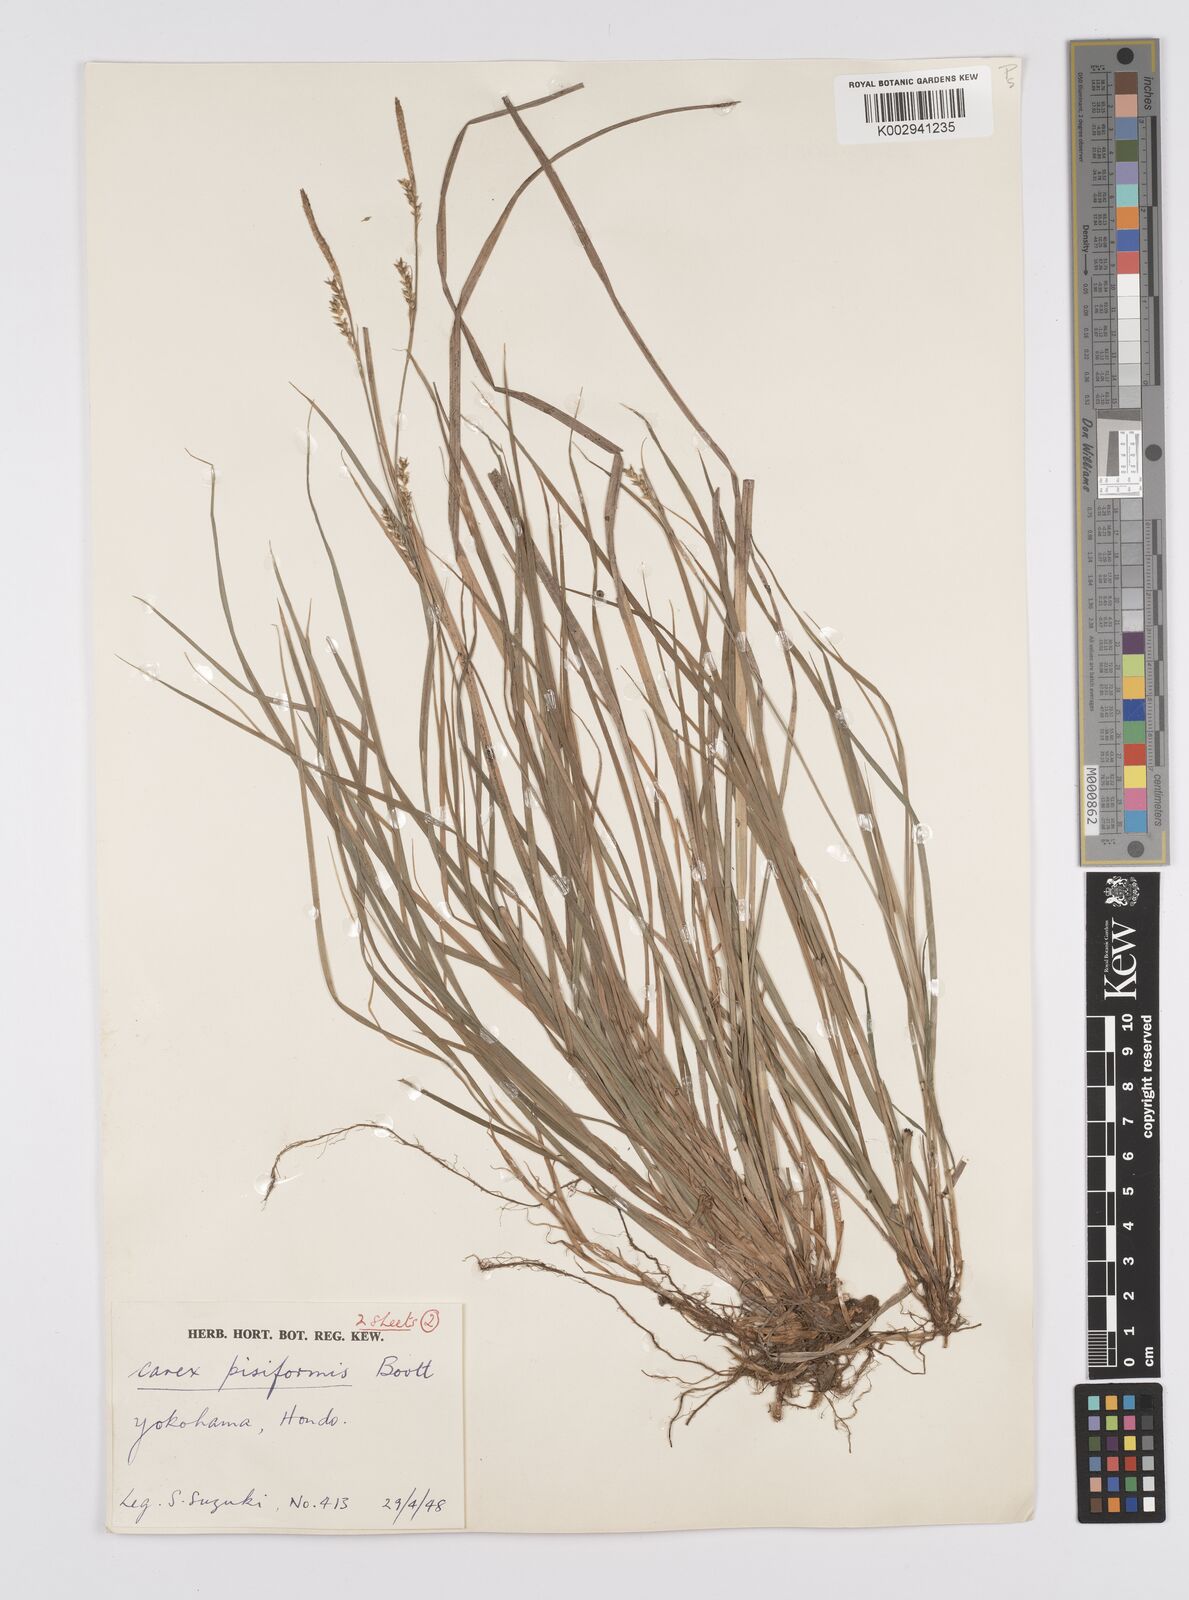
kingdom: Plantae
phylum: Tracheophyta
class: Liliopsida
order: Poales
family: Cyperaceae
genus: Carex
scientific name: Carex pisiformis
